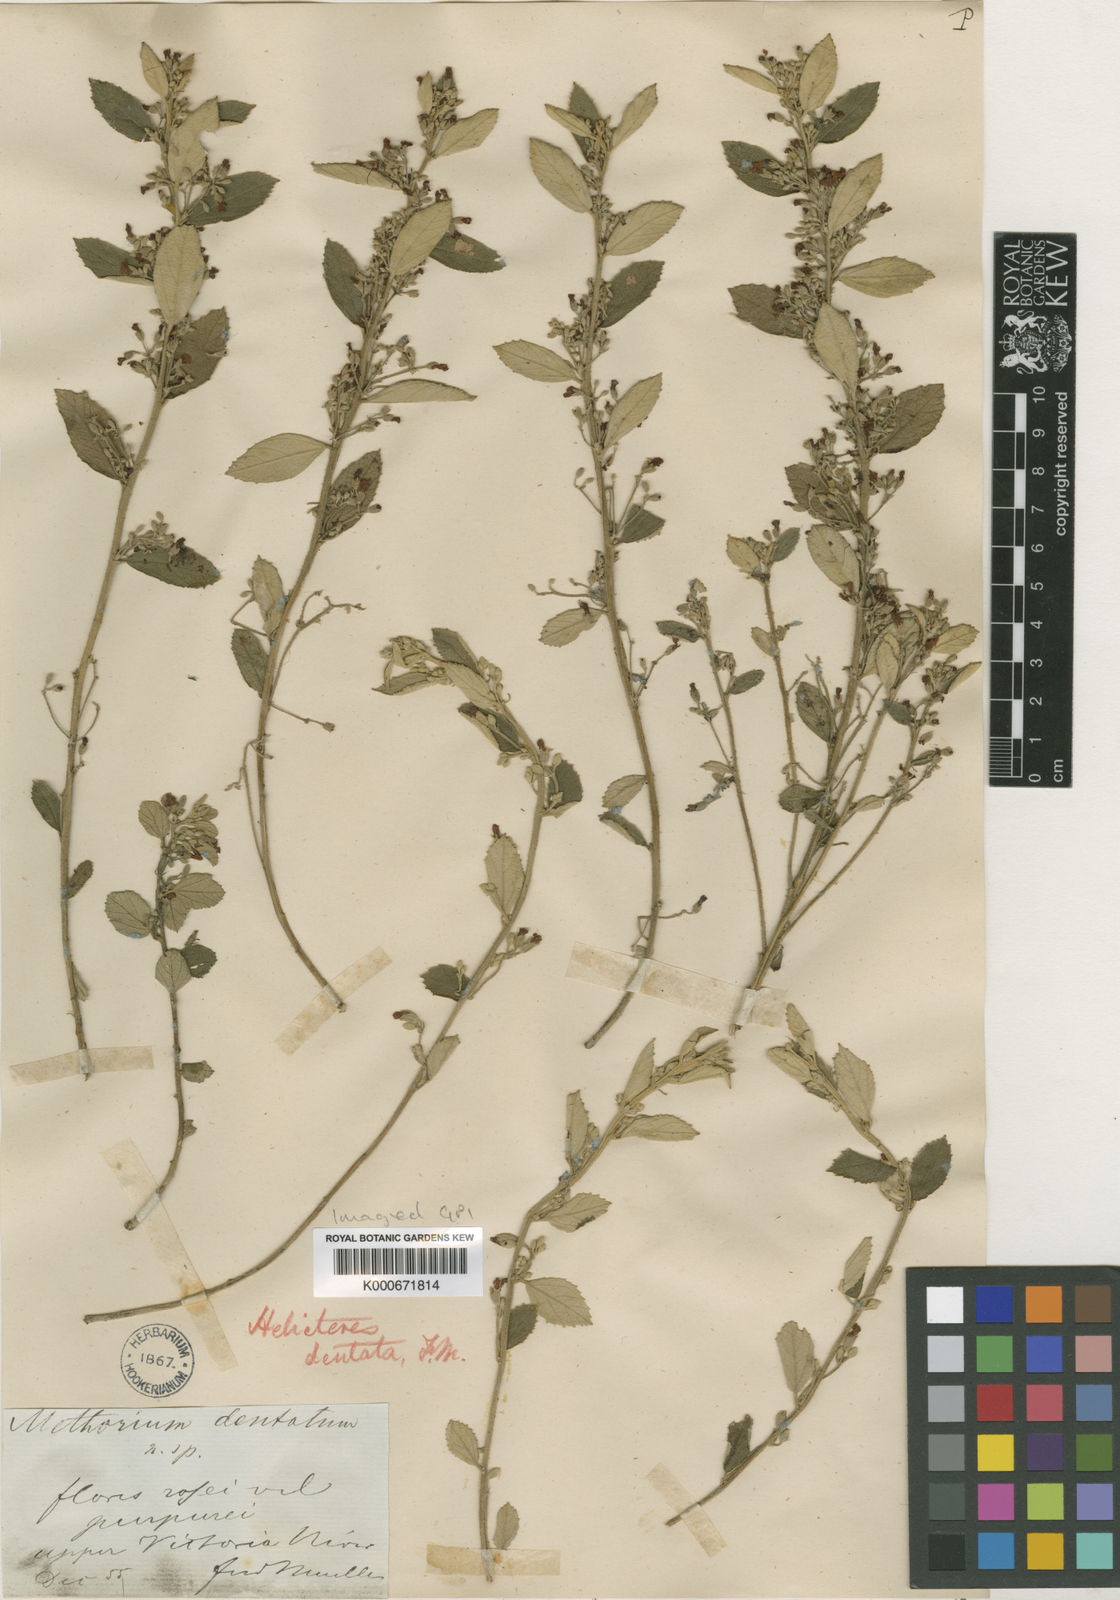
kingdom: Plantae
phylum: Tracheophyta
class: Magnoliopsida
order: Malvales
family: Malvaceae
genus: Helicteres
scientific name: Helicteres integrifolia
